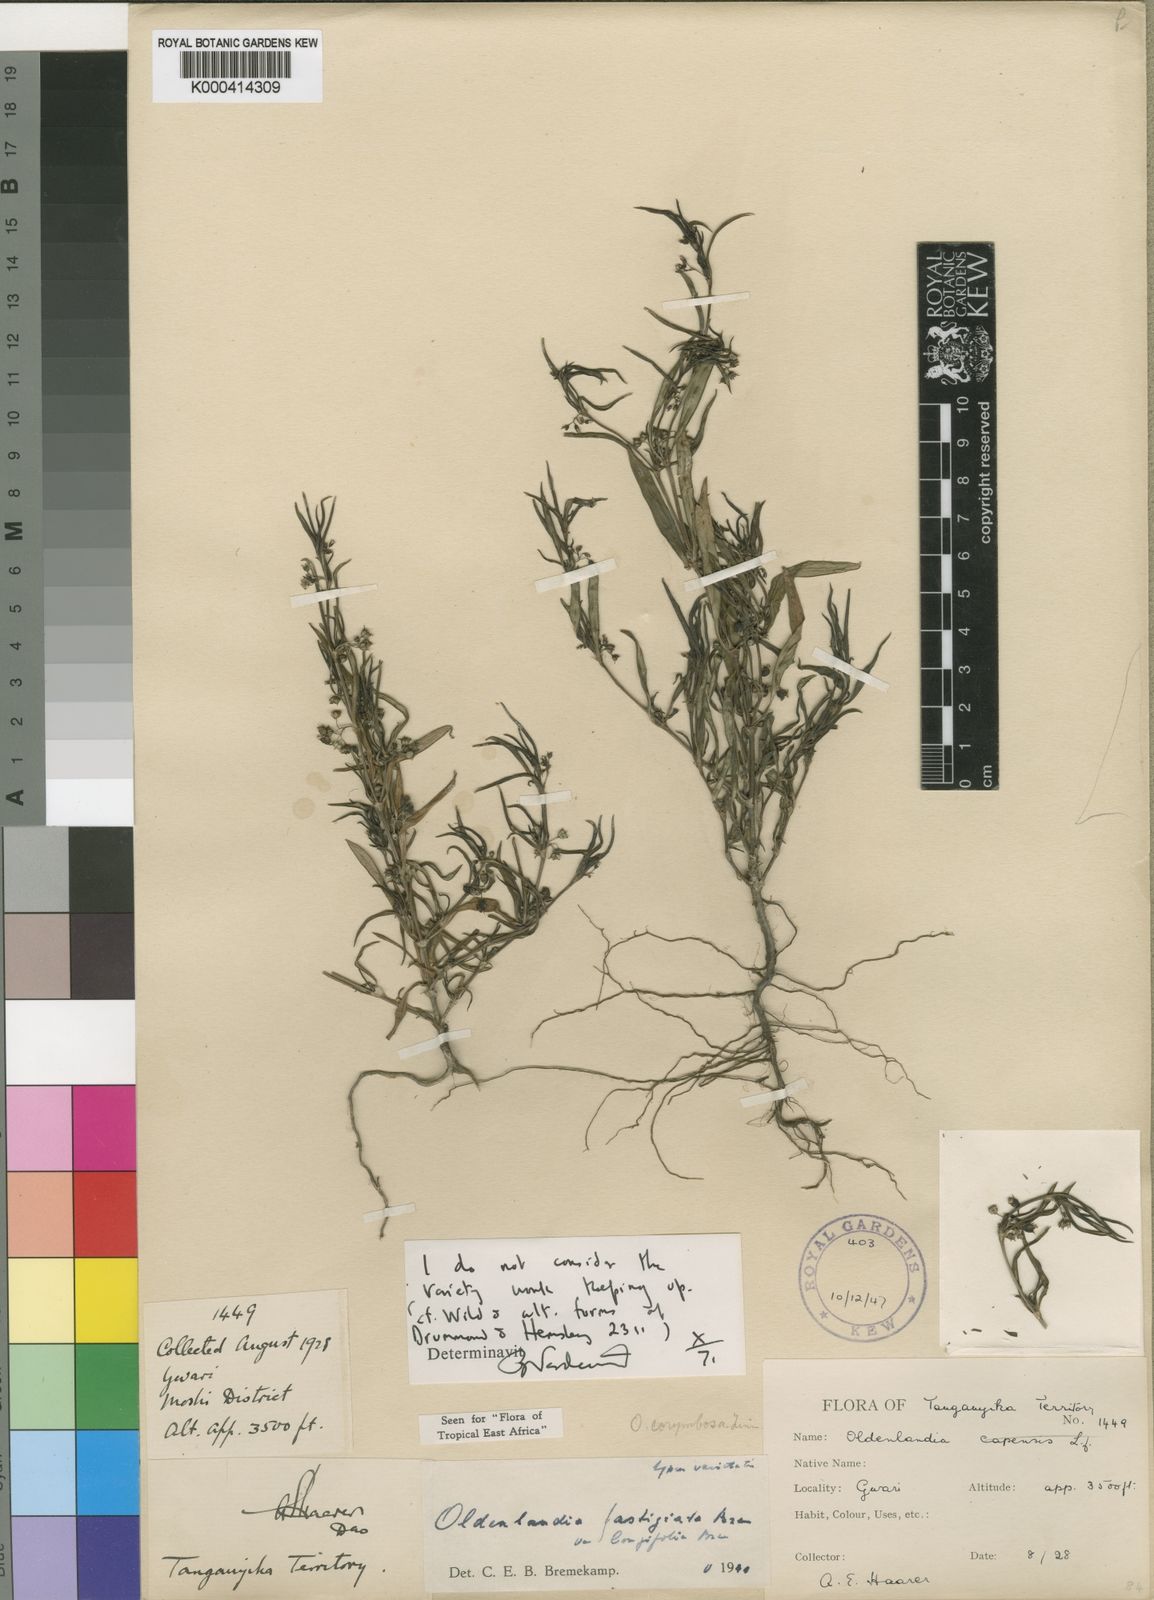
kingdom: Plantae
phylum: Tracheophyta
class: Magnoliopsida
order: Gentianales
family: Rubiaceae
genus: Oldenlandia
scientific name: Oldenlandia fastigiata
